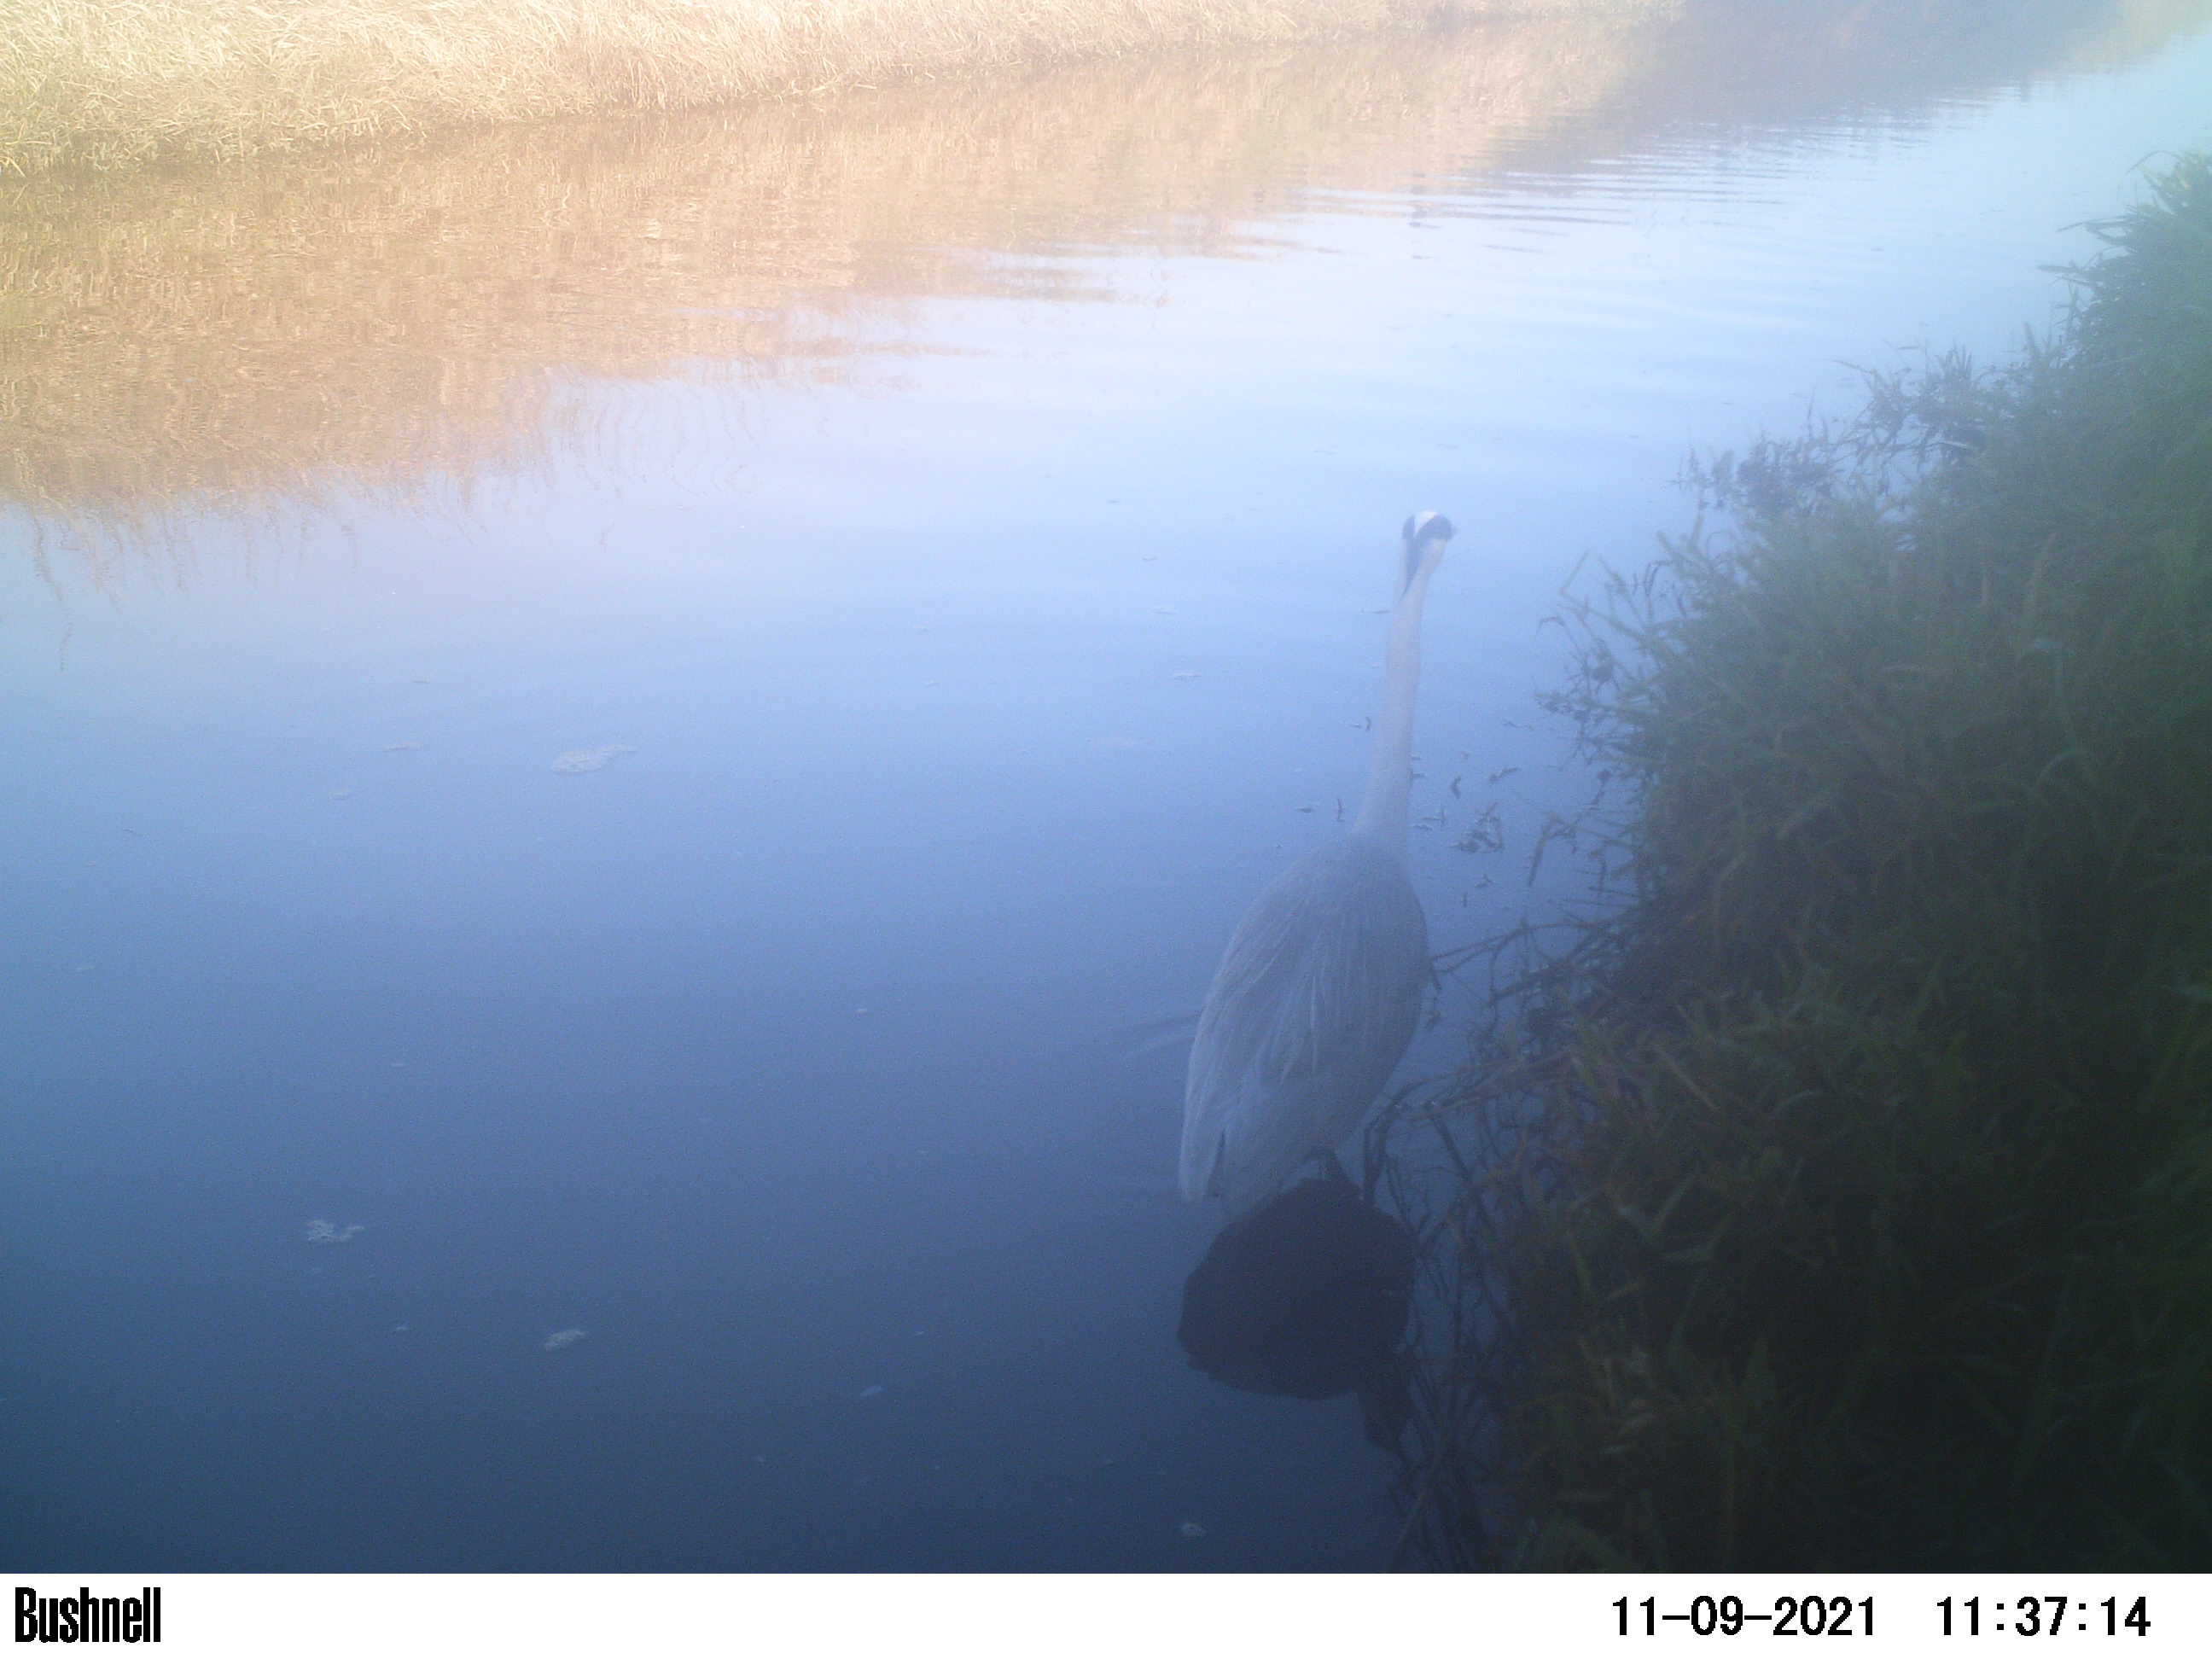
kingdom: Animalia
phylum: Chordata
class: Aves
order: Anseriformes
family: Anatidae
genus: Anas
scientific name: Anas
